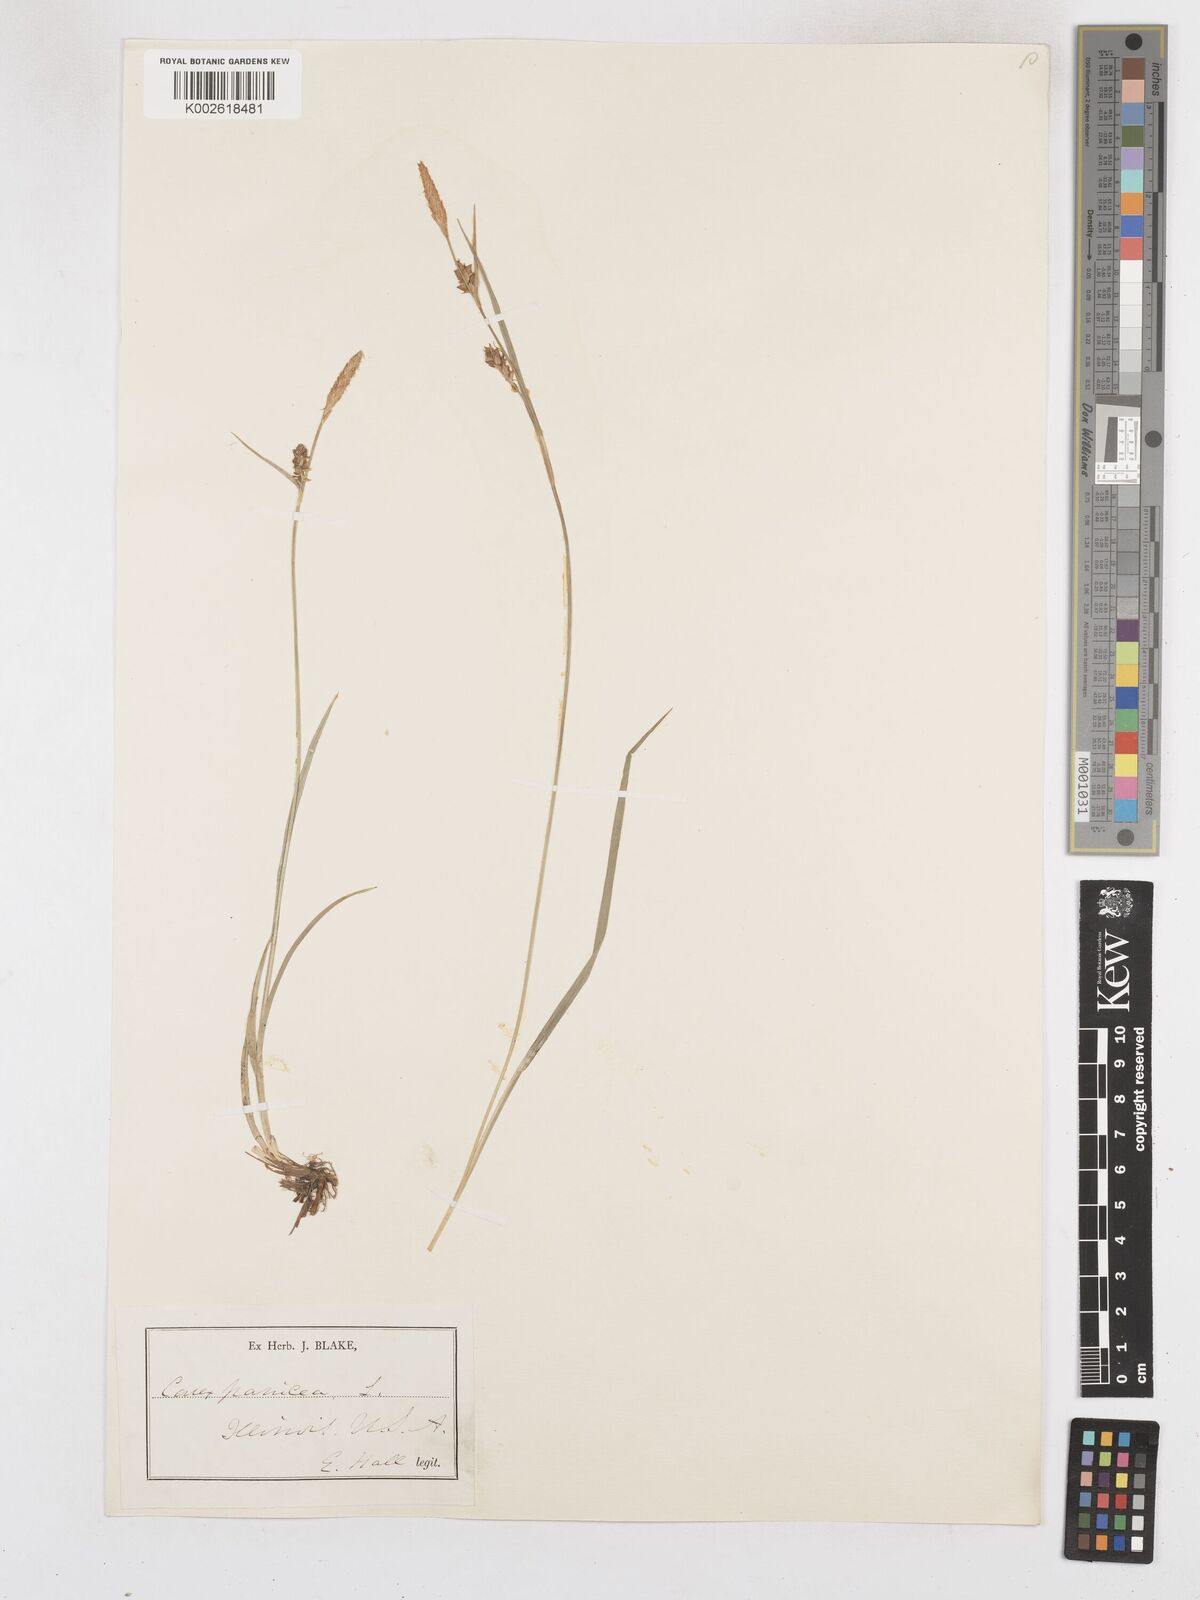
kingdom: Plantae
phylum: Tracheophyta
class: Liliopsida
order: Poales
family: Cyperaceae
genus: Carex
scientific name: Carex panicea
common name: Carnation sedge
